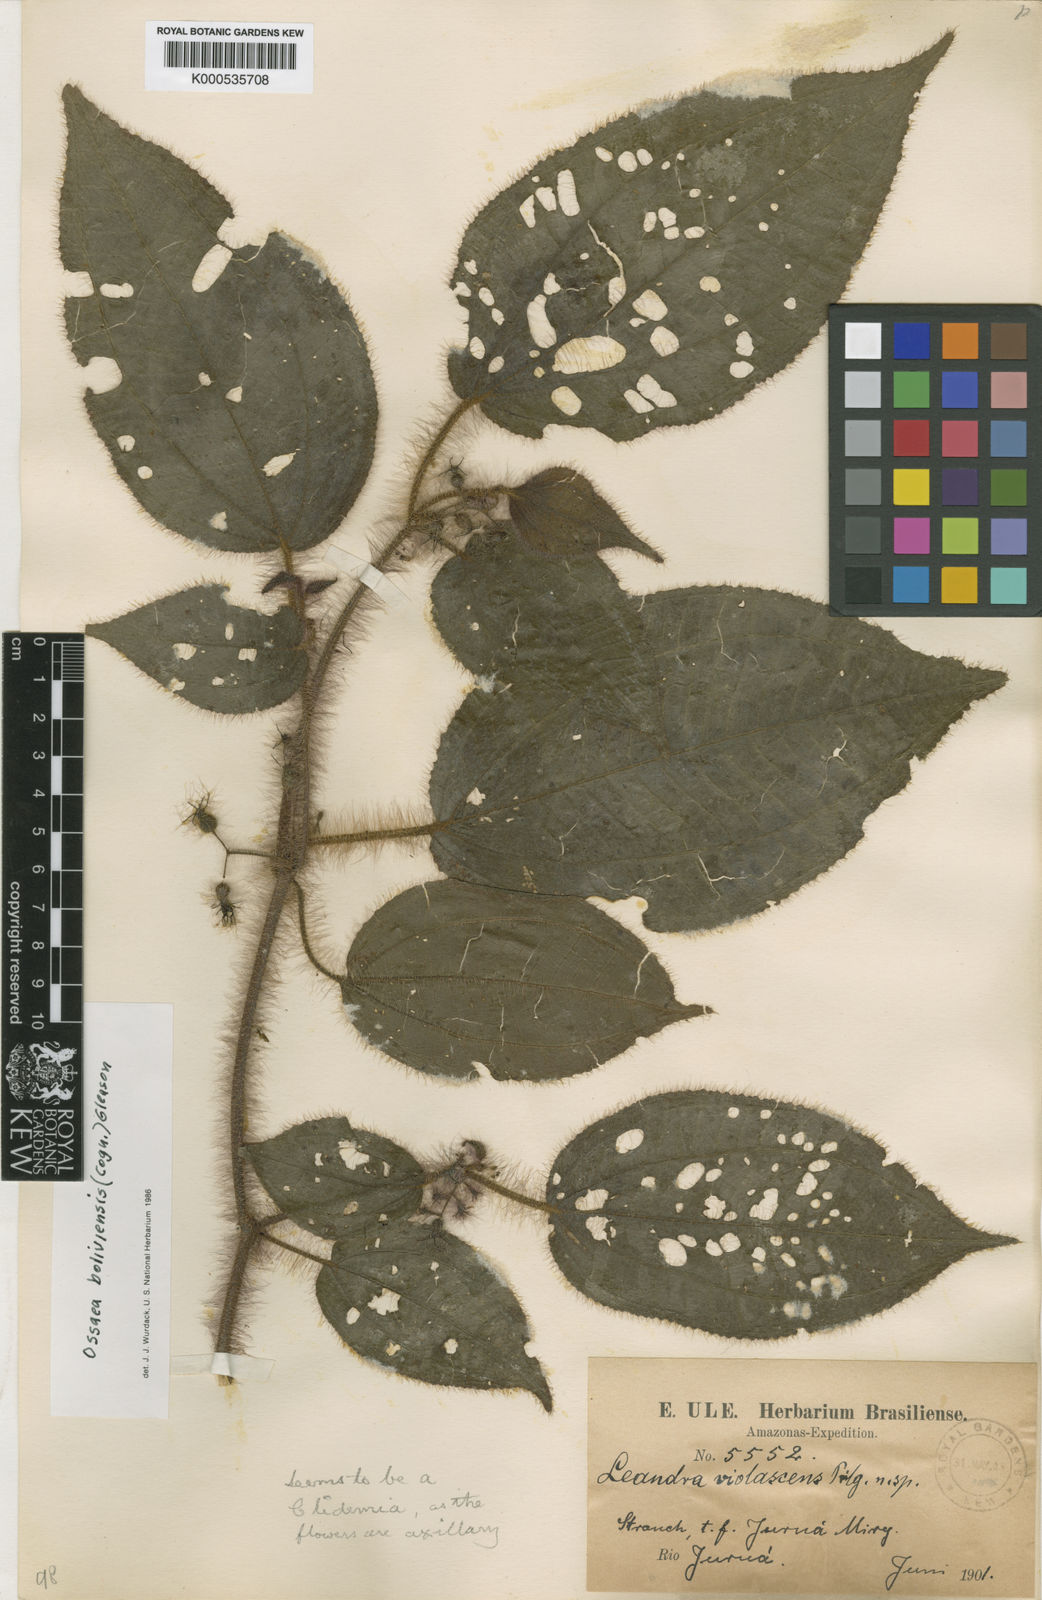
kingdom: Plantae
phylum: Tracheophyta
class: Magnoliopsida
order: Myrtales
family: Melastomataceae
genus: Miconia
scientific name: Miconia violascens
